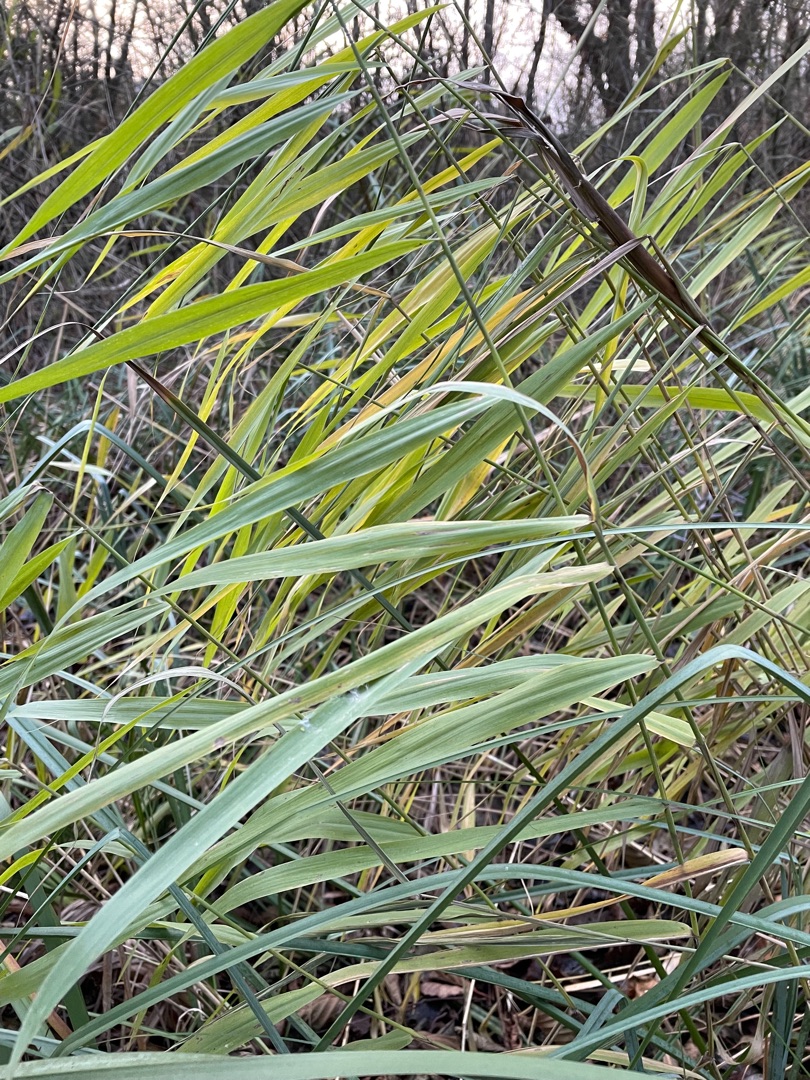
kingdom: Plantae
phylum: Tracheophyta
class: Liliopsida
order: Poales
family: Poaceae
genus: Phragmites
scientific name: Phragmites australis
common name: Tagrør
